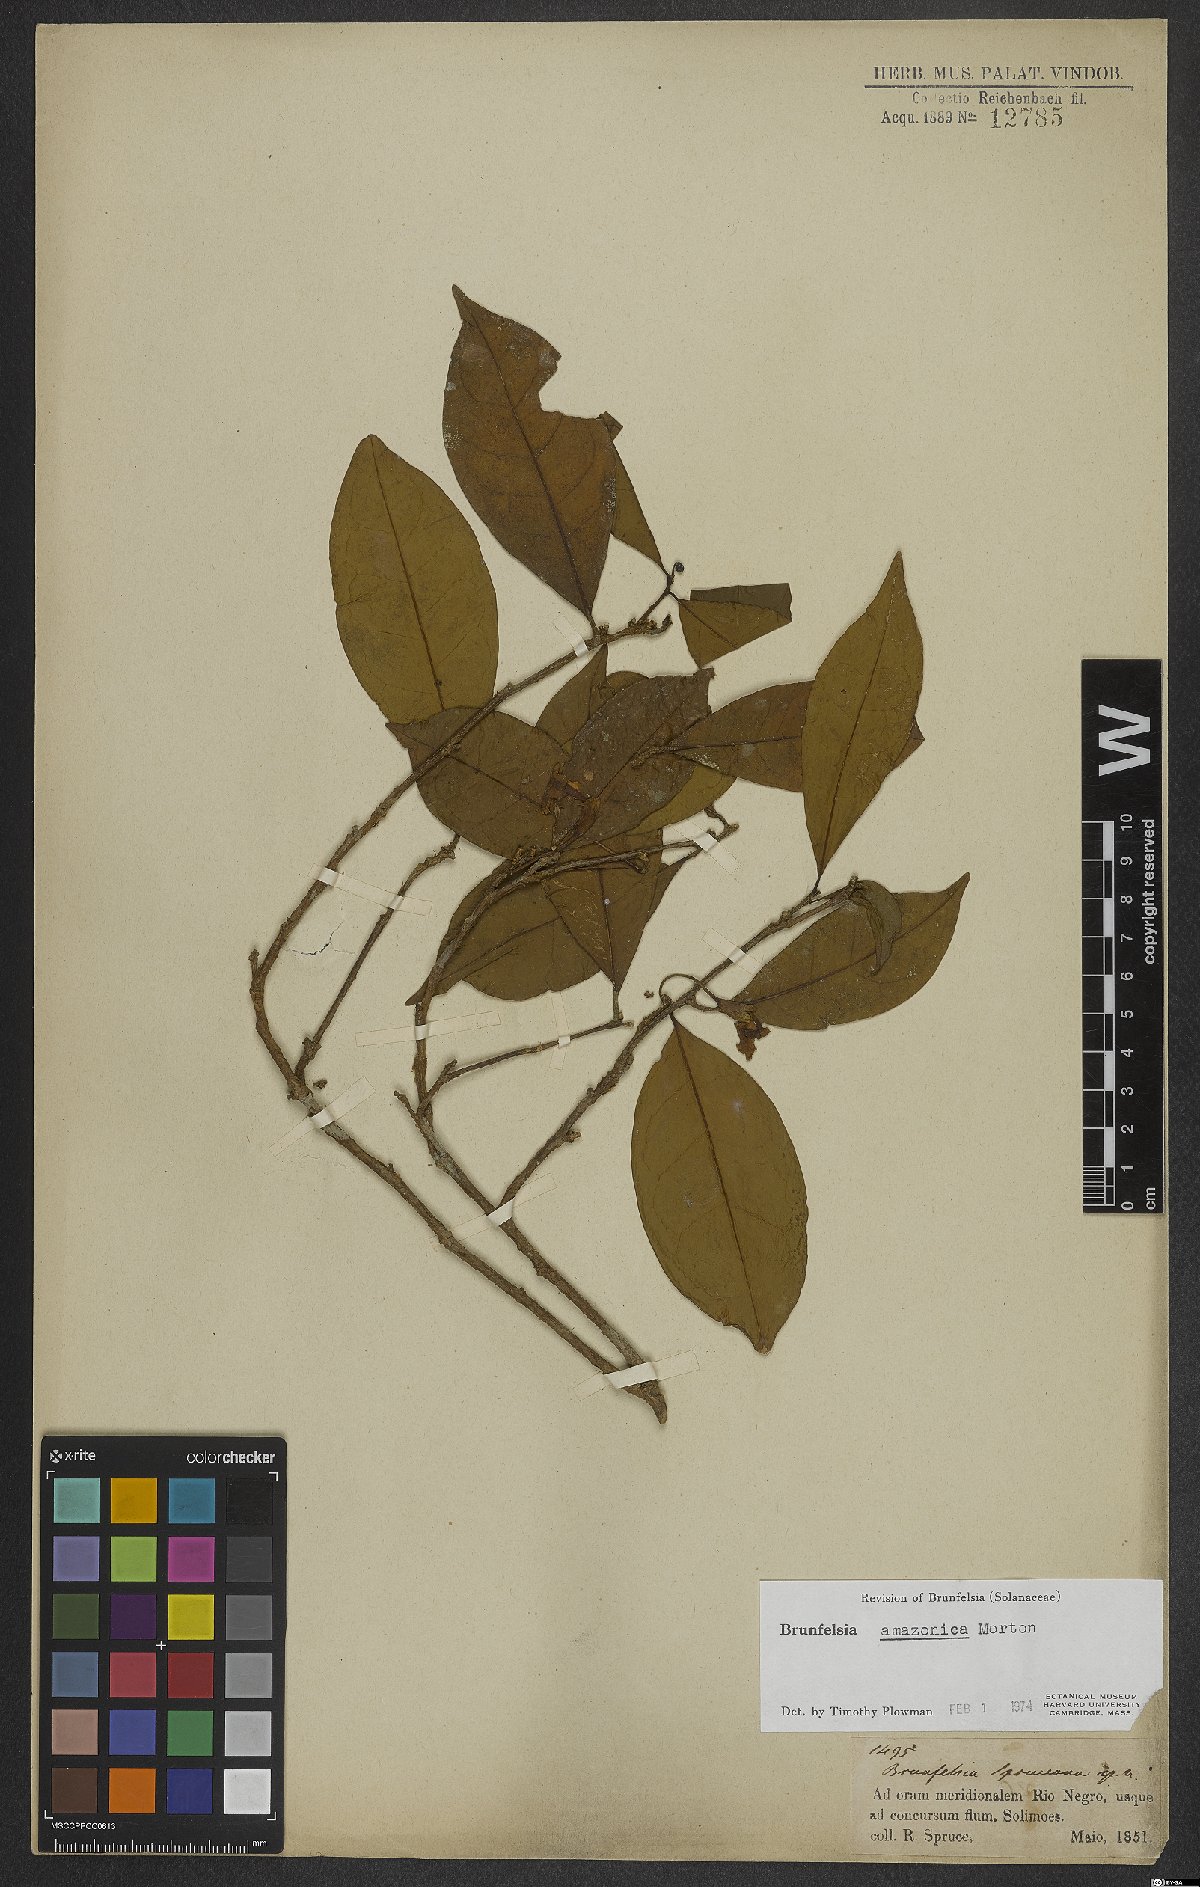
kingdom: Plantae
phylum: Tracheophyta
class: Magnoliopsida
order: Solanales
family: Solanaceae
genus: Brunfelsia
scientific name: Brunfelsia amazonica
